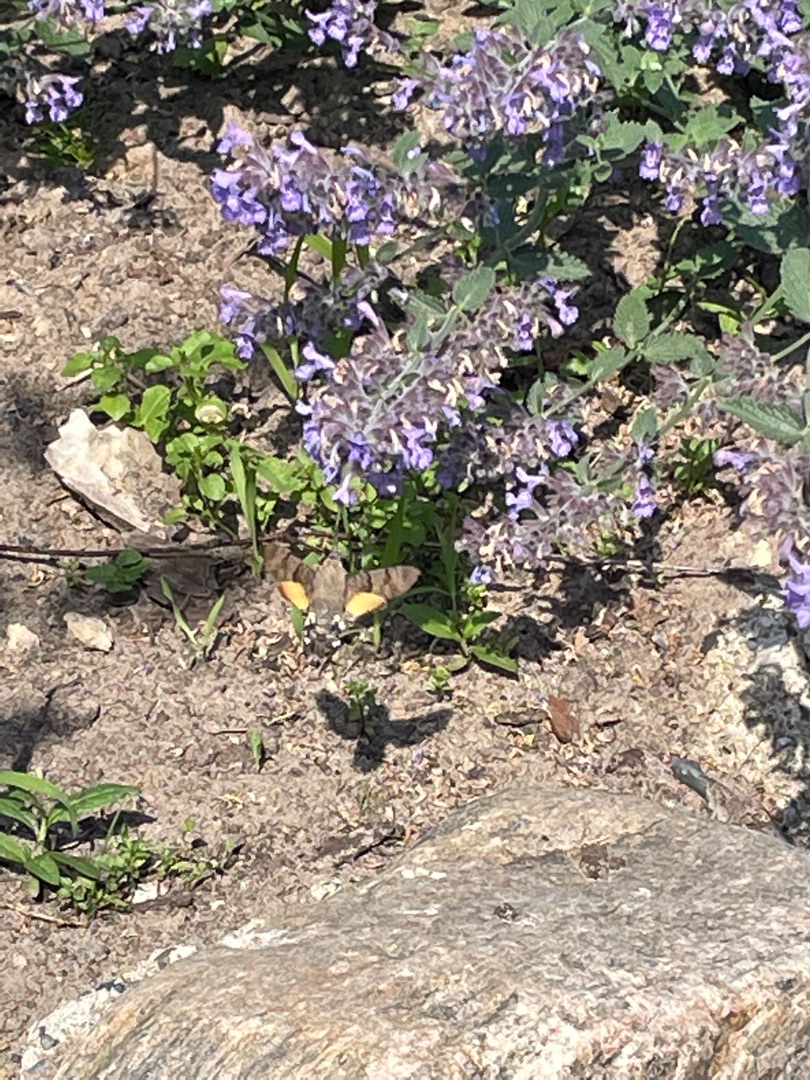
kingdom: Animalia
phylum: Arthropoda
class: Insecta
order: Lepidoptera
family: Sphingidae
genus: Macroglossum
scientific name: Macroglossum stellatarum
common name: Duehale
